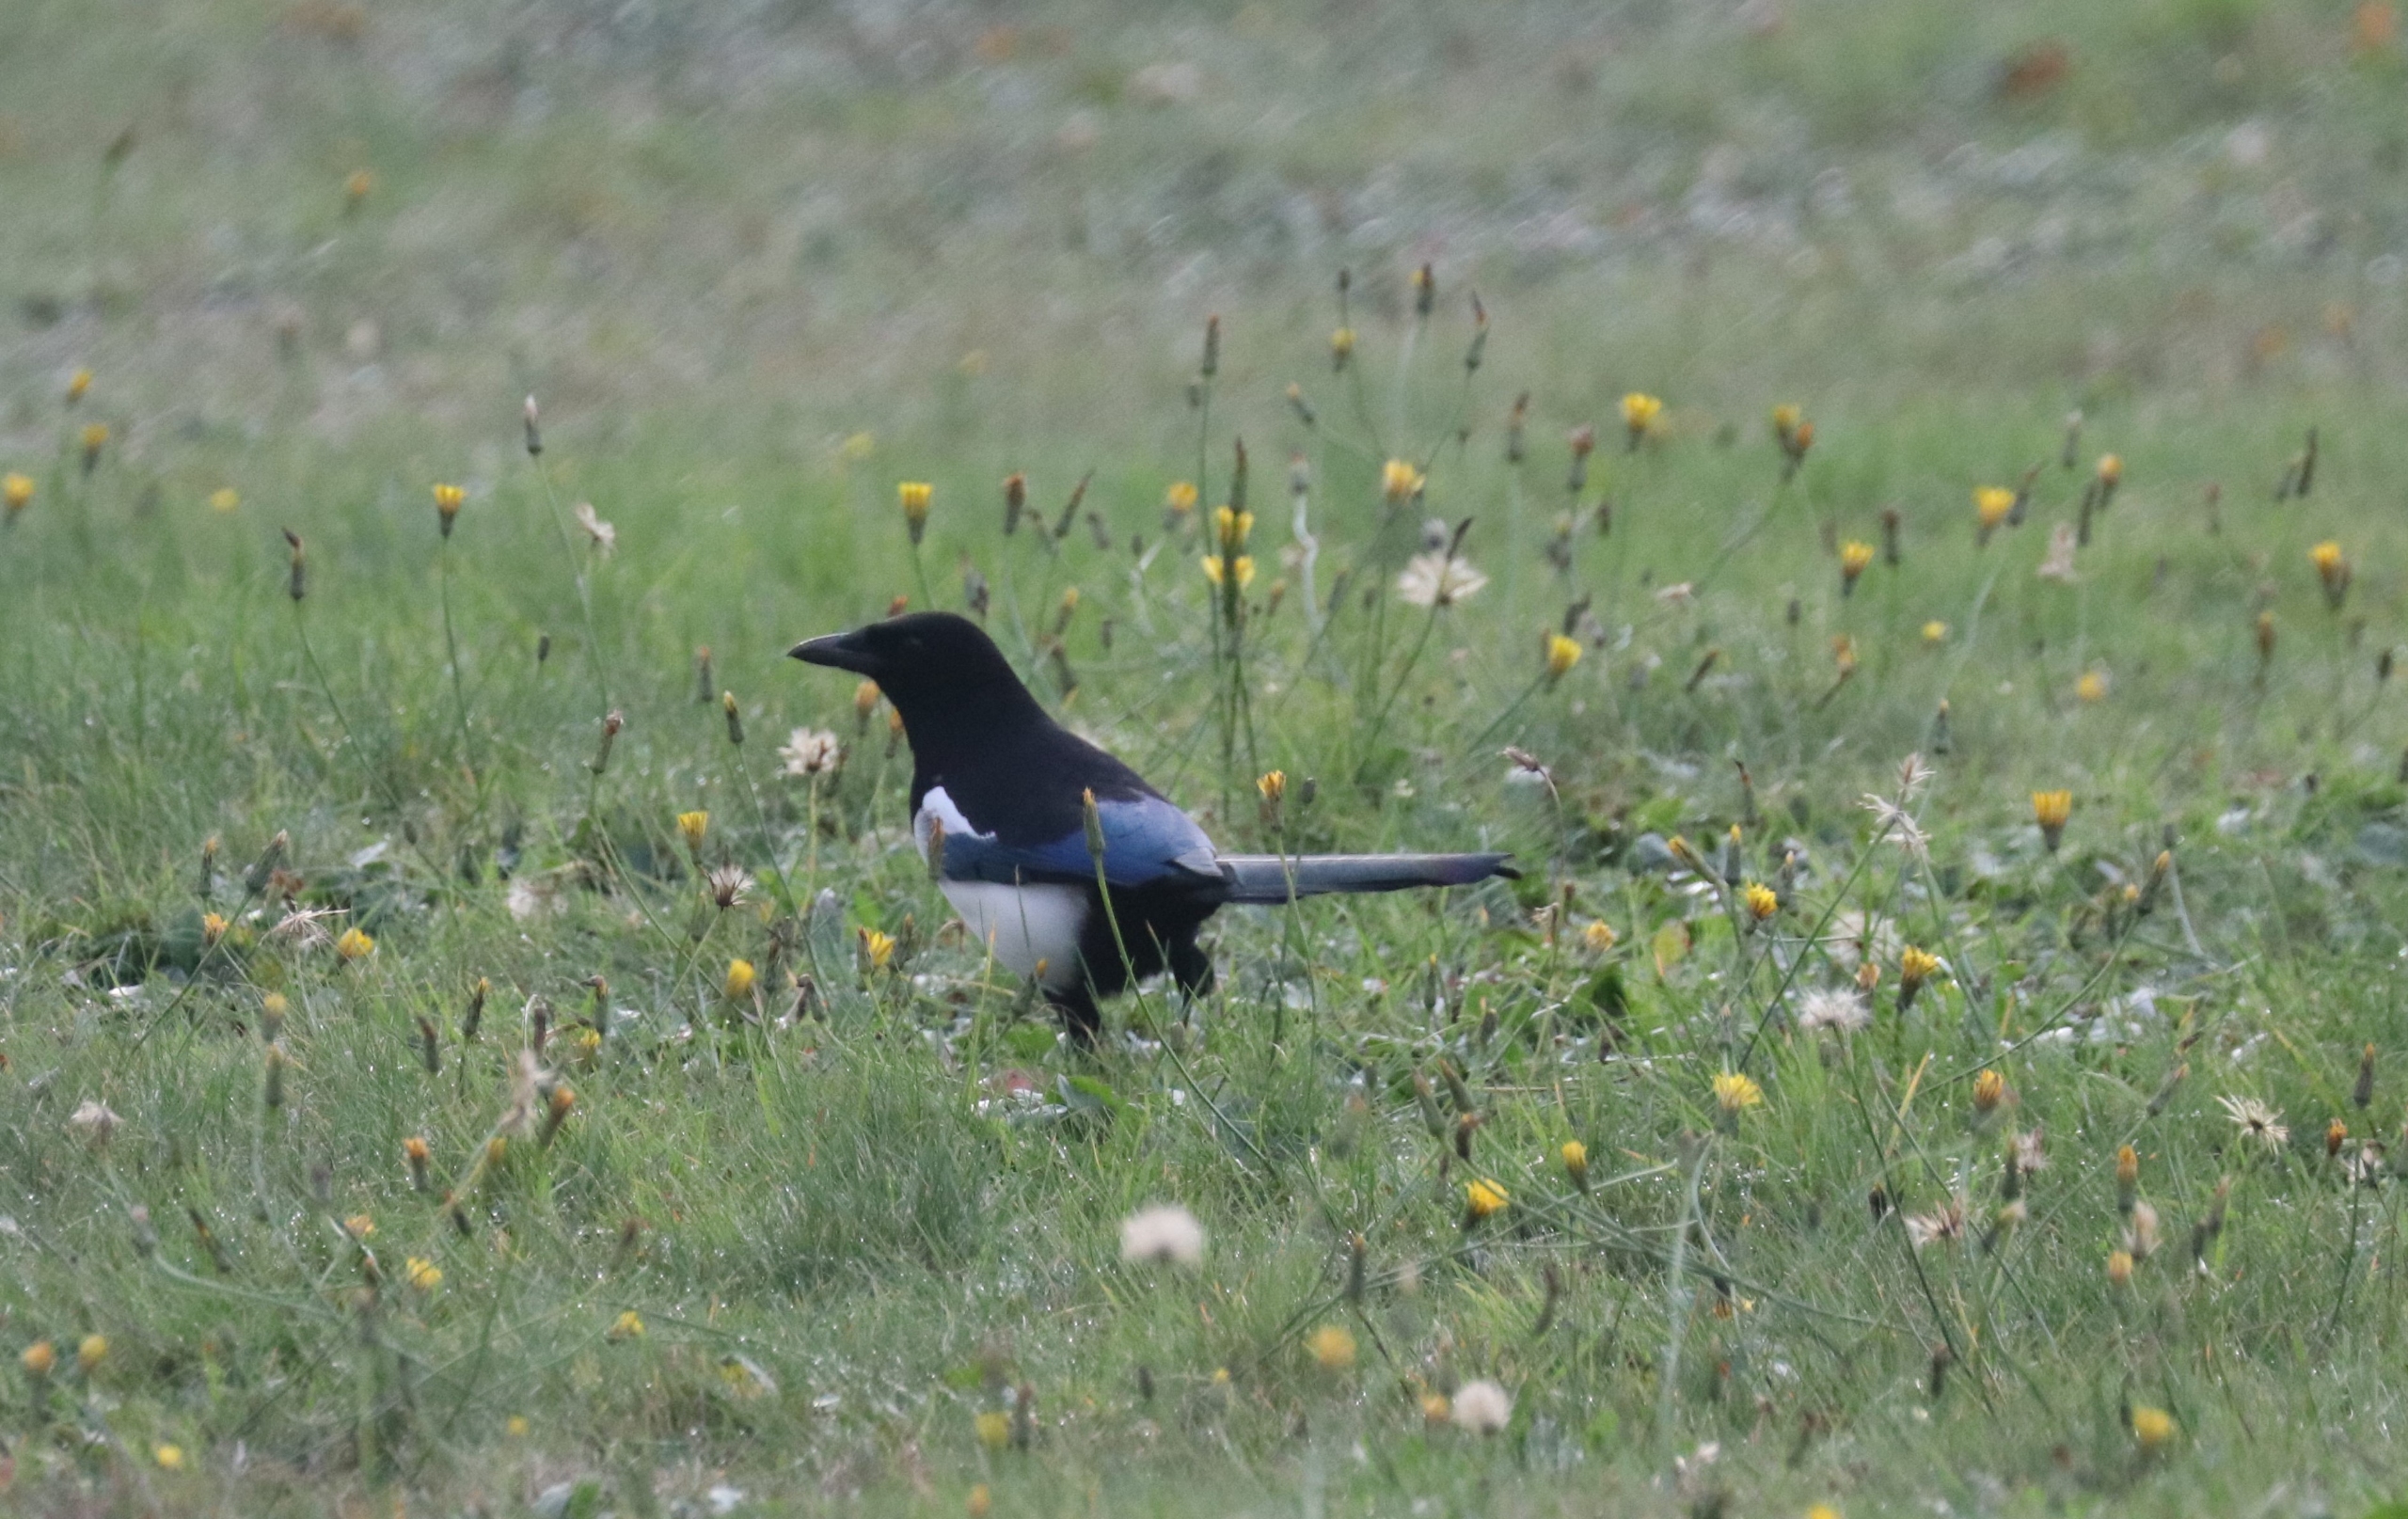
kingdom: Animalia
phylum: Chordata
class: Aves
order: Passeriformes
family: Corvidae
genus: Pica
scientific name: Pica pica
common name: Husskade
